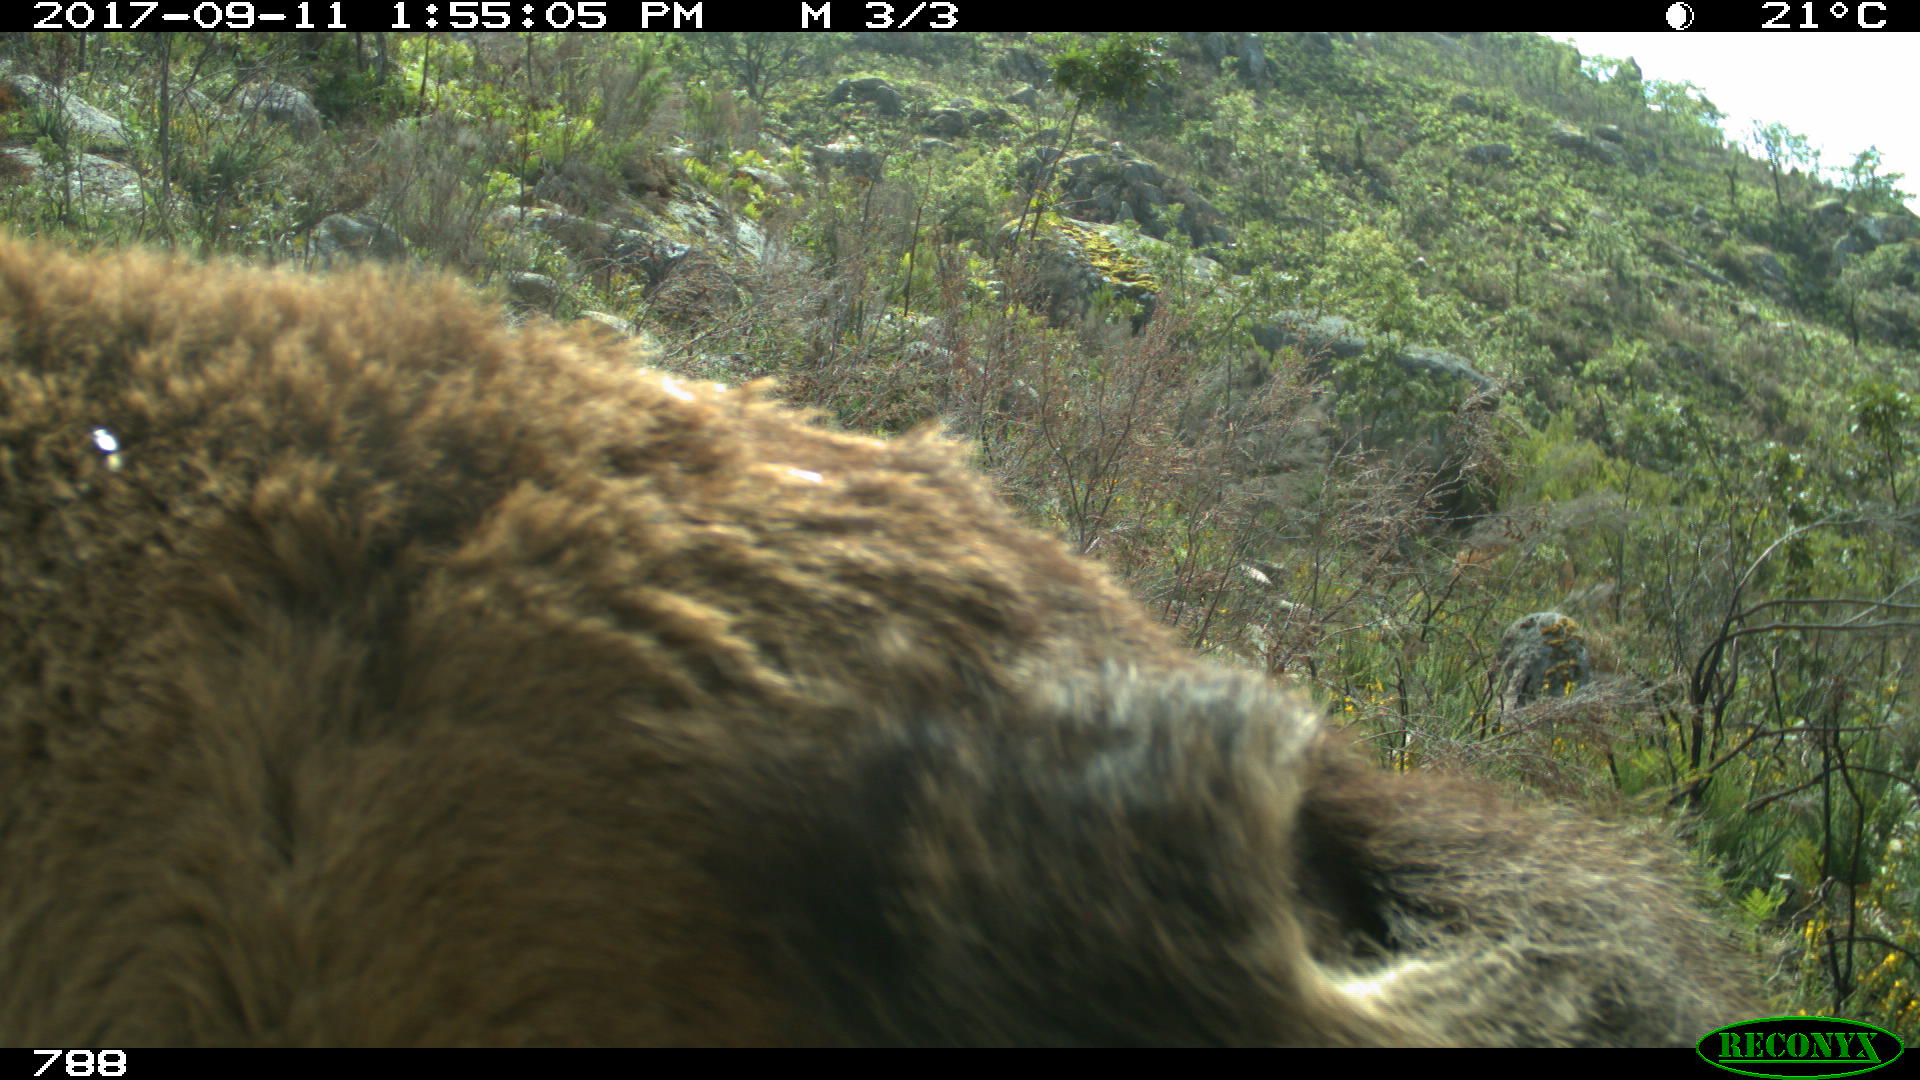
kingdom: Animalia
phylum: Chordata
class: Mammalia
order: Perissodactyla
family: Equidae
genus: Equus
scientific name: Equus caballus
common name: Horse
